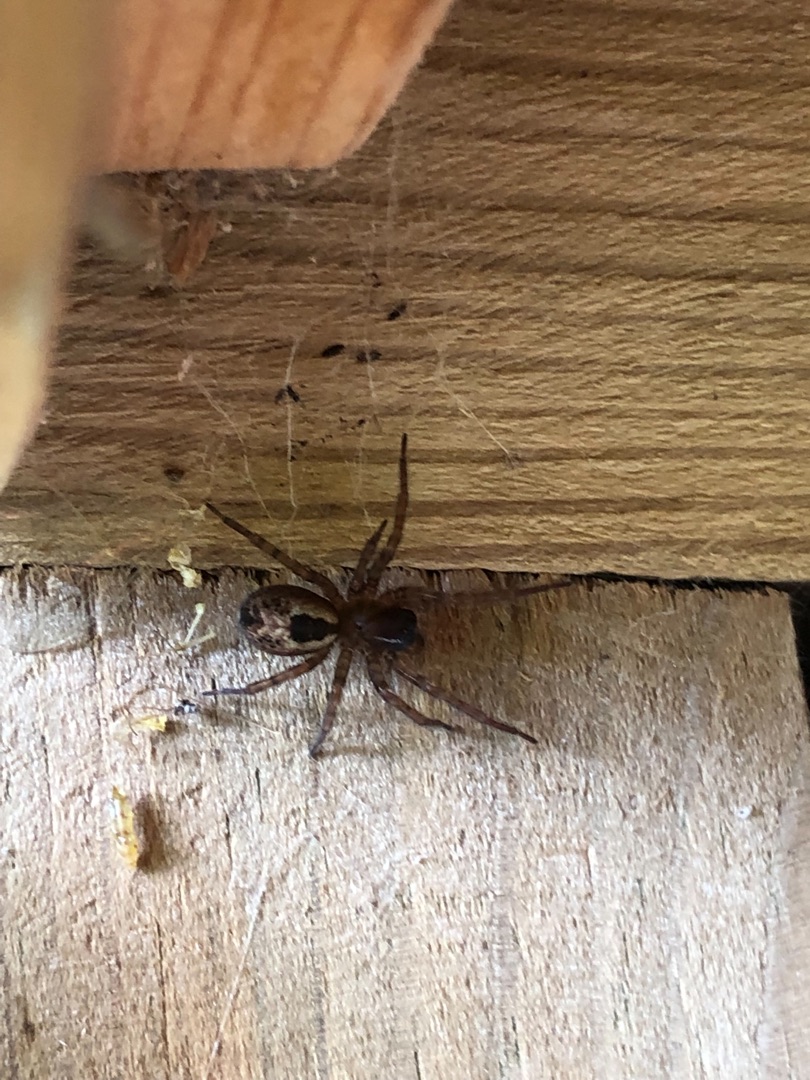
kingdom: Animalia
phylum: Arthropoda
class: Arachnida
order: Araneae
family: Amaurobiidae
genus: Amaurobius
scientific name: Amaurobius fenestralis
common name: Skovkartespinder
